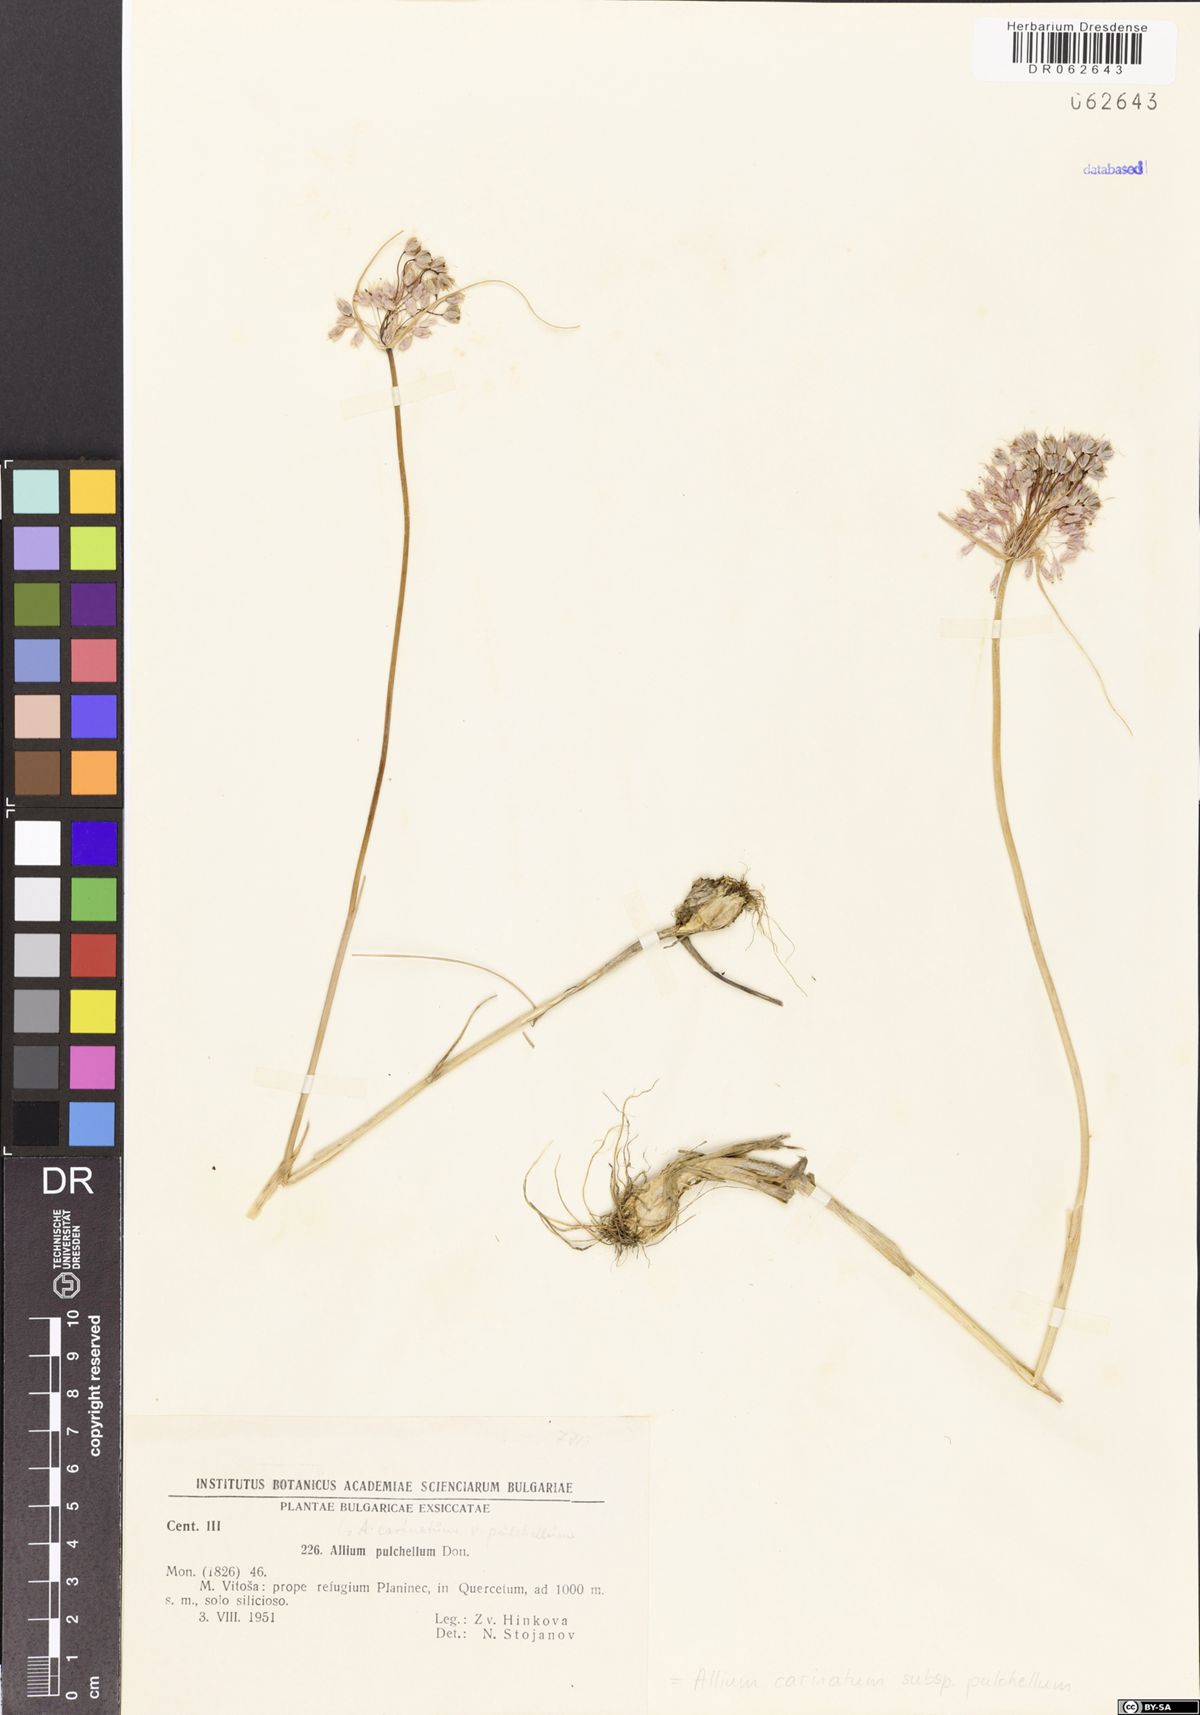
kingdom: Plantae
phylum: Tracheophyta
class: Liliopsida
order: Asparagales
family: Amaryllidaceae
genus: Allium
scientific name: Allium coloratum
